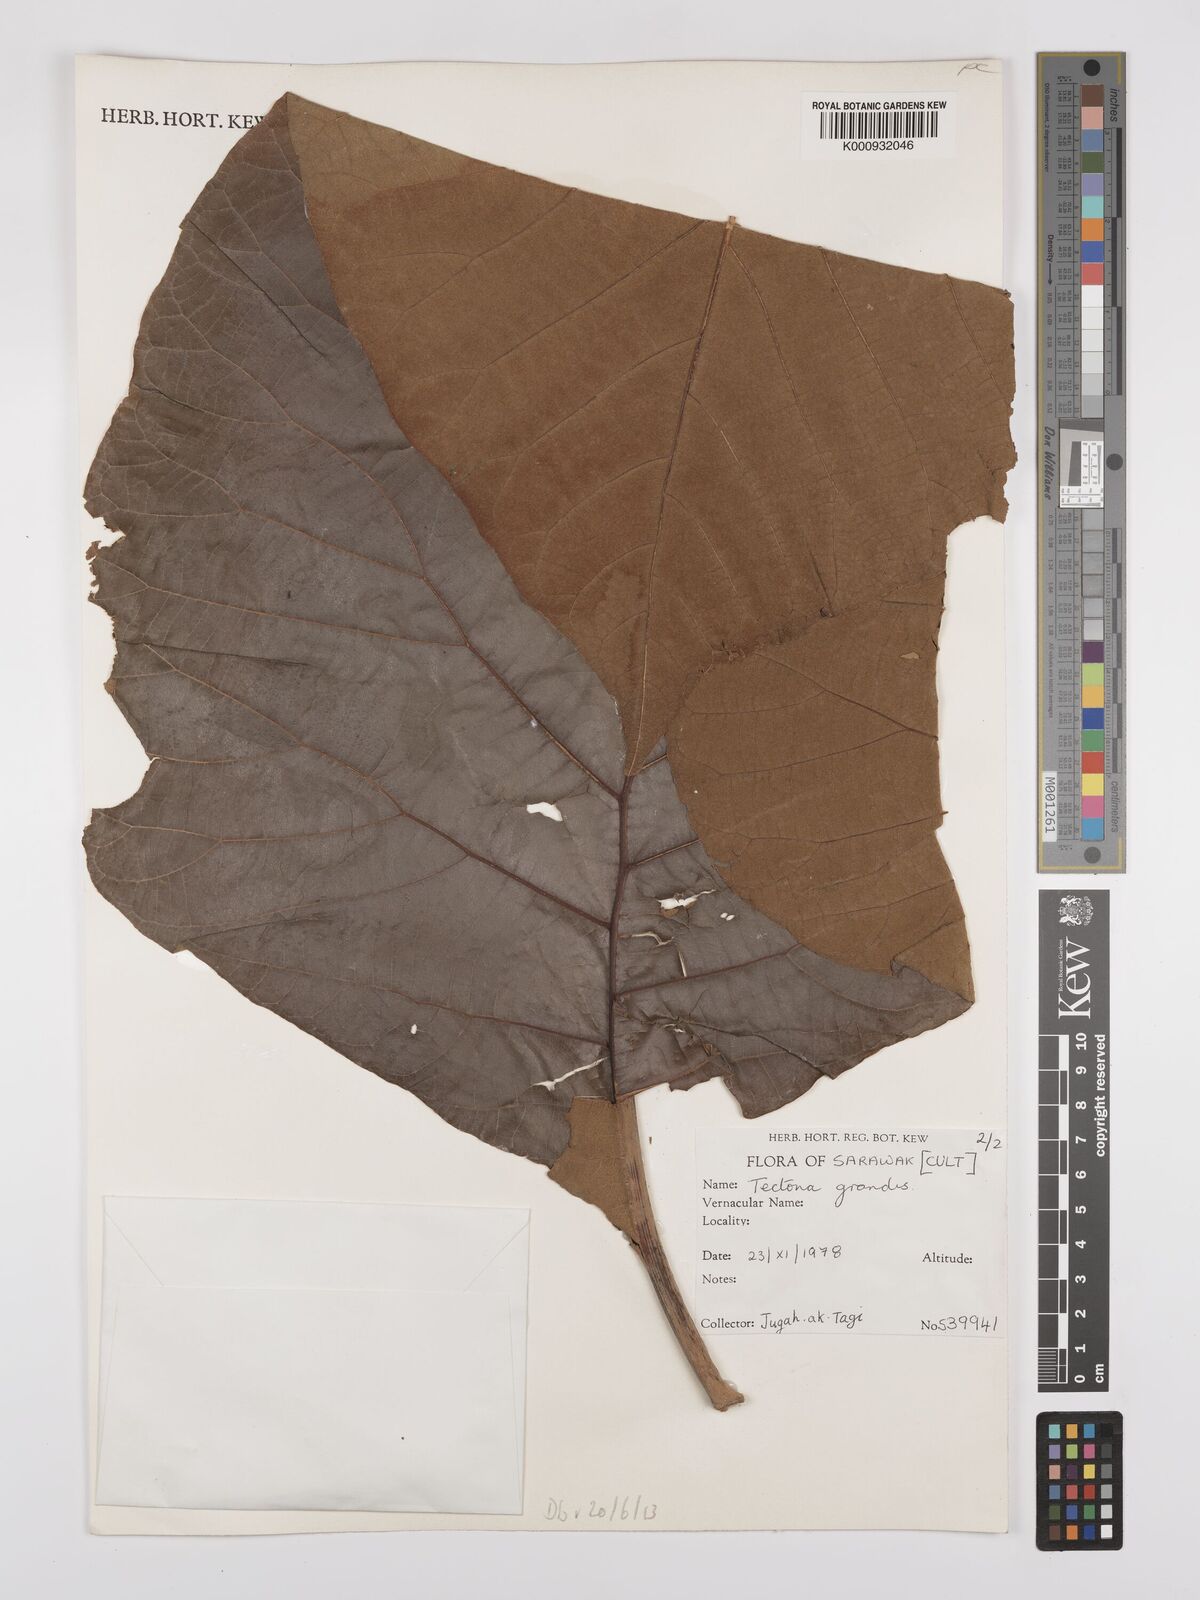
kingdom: Plantae
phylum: Tracheophyta
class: Magnoliopsida
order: Lamiales
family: Lamiaceae
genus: Tectona
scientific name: Tectona grandis
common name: Teak
